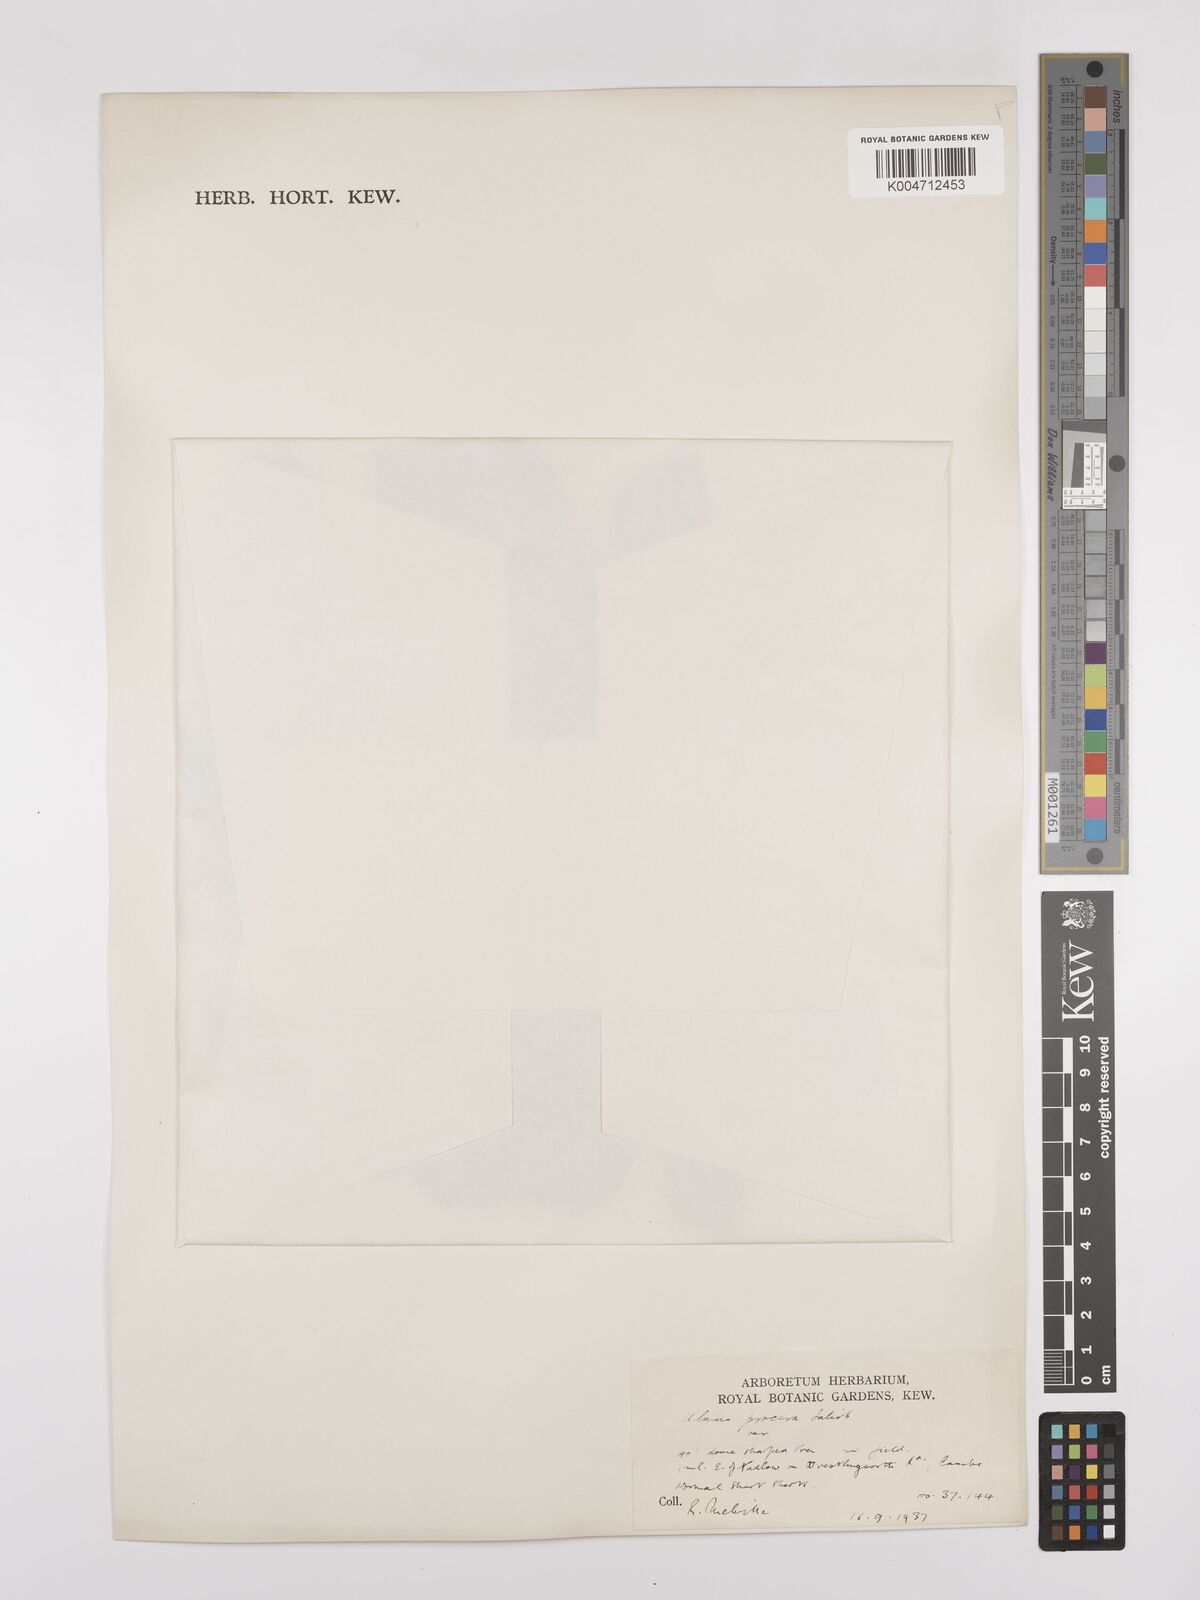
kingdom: Plantae
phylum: Tracheophyta
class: Magnoliopsida
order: Rosales
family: Ulmaceae
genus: Ulmus
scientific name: Ulmus minor
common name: Small-leaved elm
